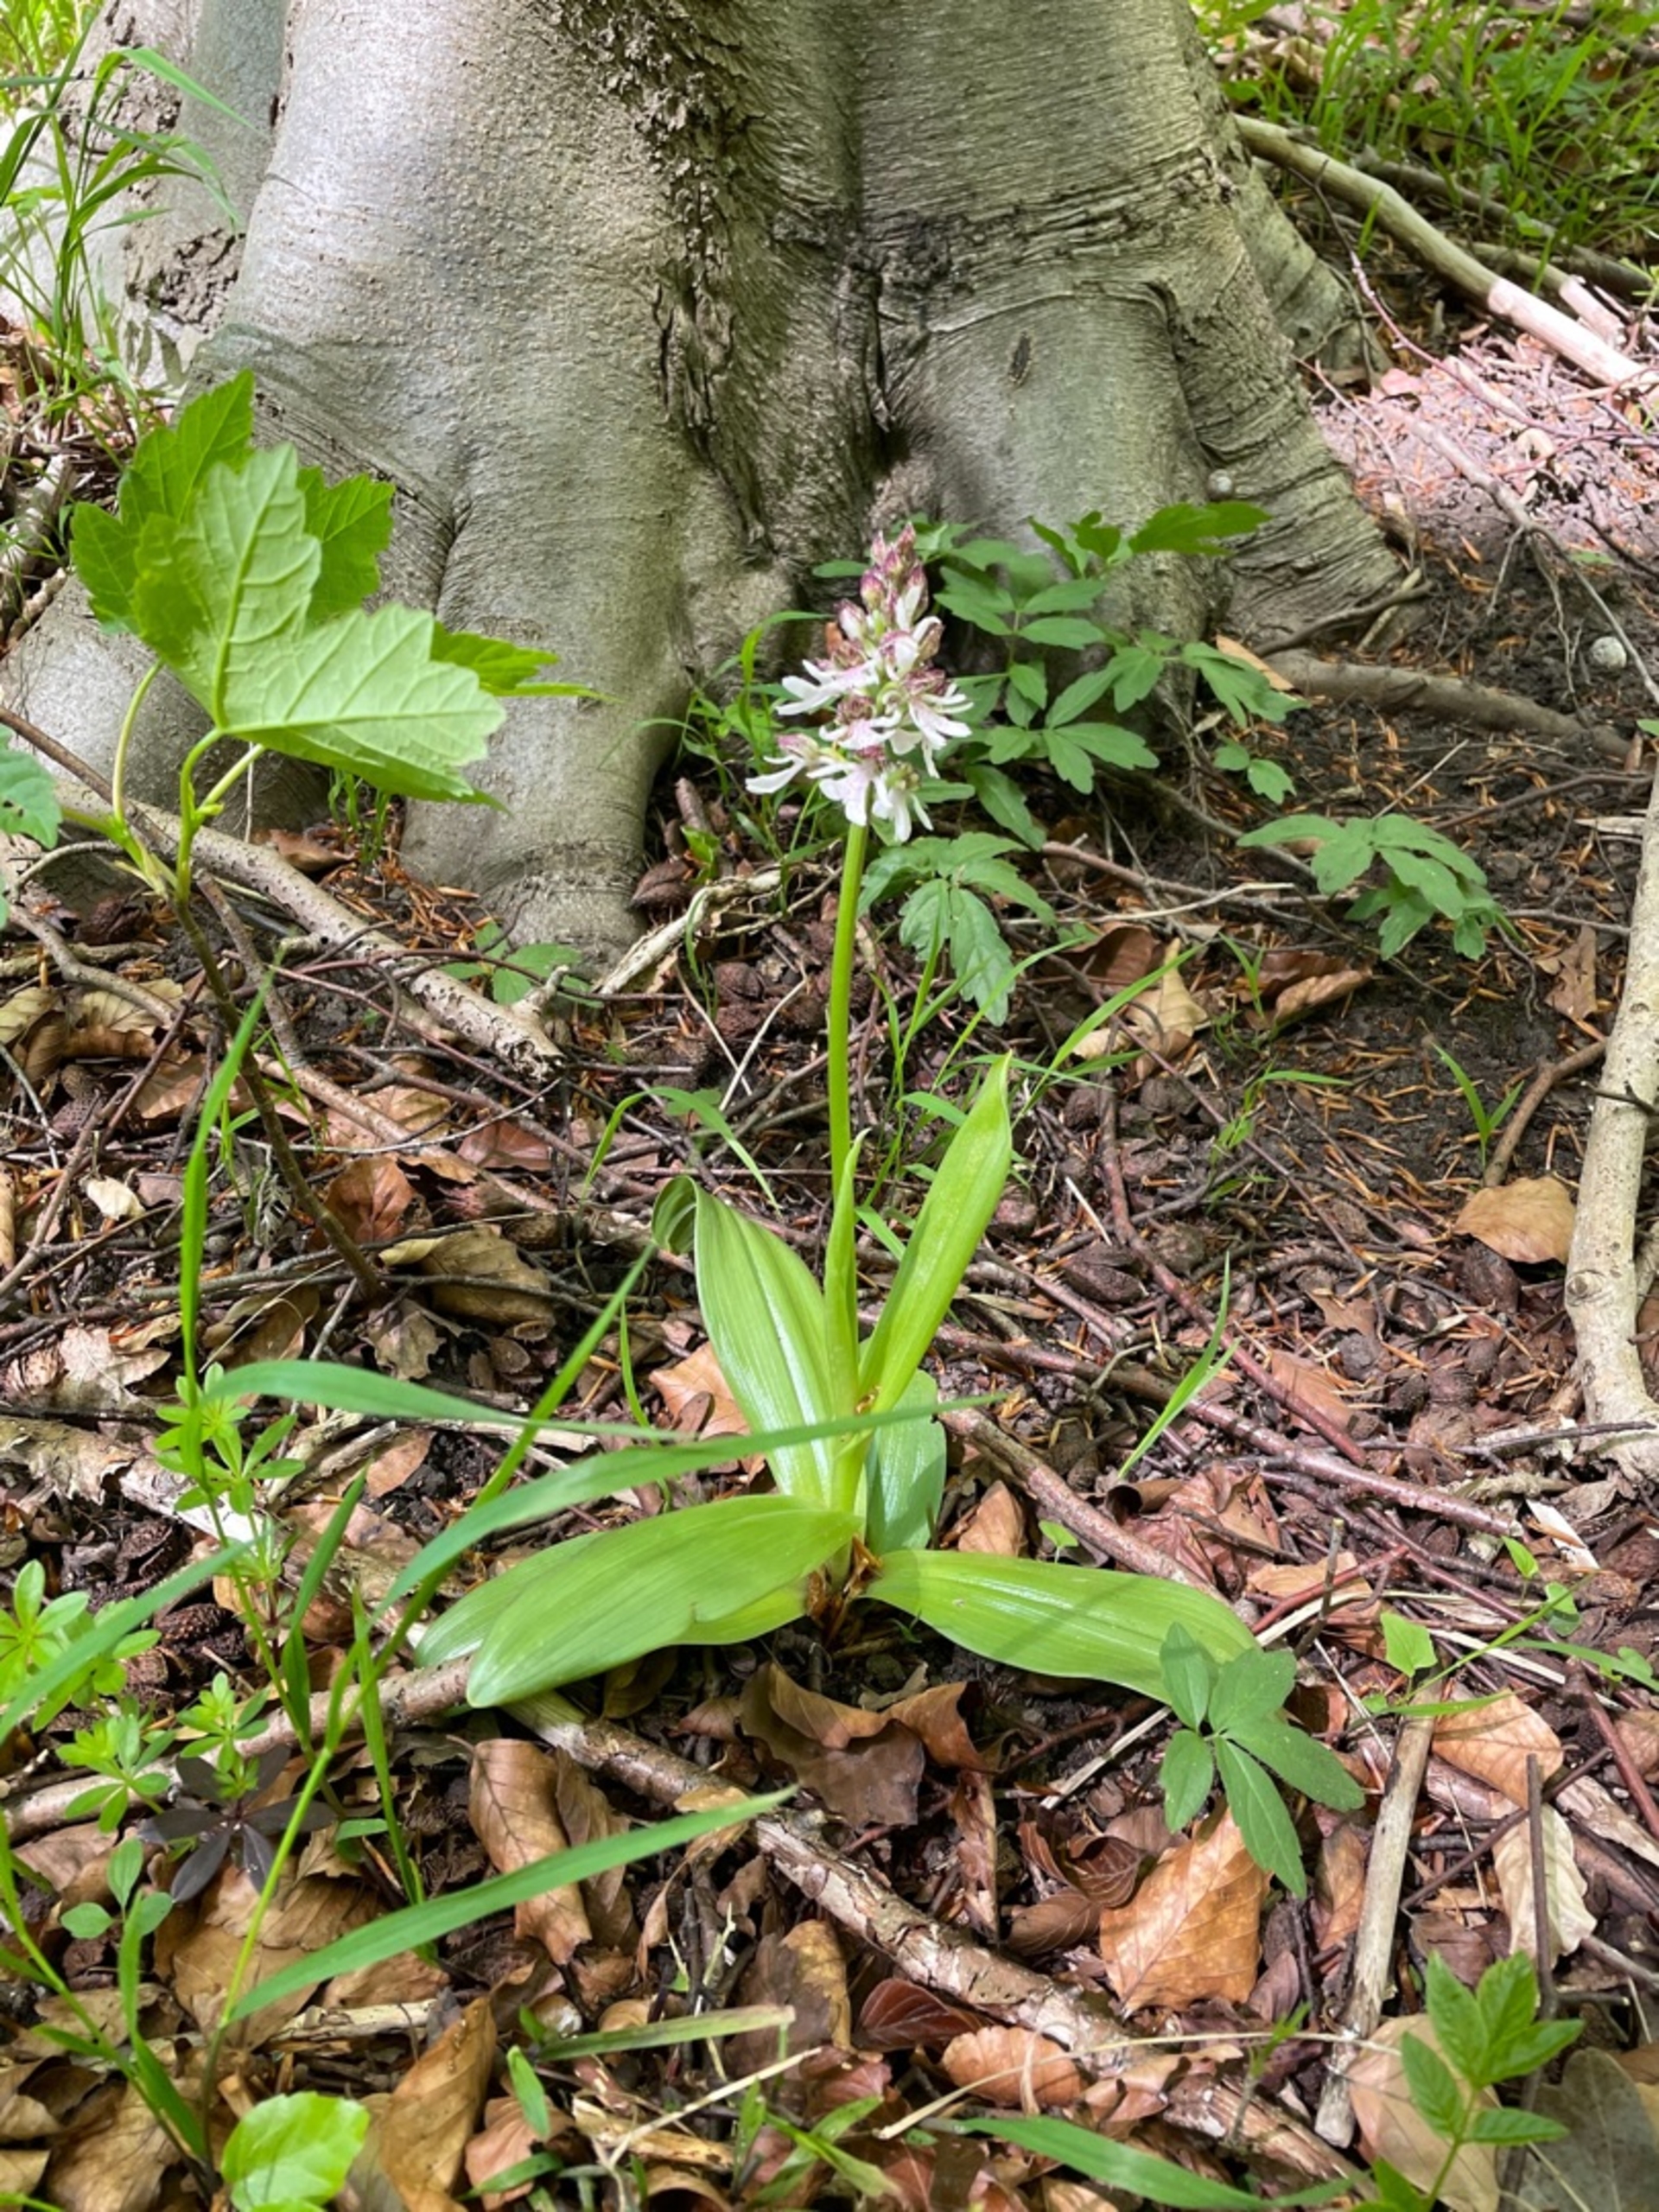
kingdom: Plantae
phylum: Tracheophyta
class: Liliopsida
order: Asparagales
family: Orchidaceae
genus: Orchis
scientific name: Orchis purpurea
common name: Stor gøgeurt
